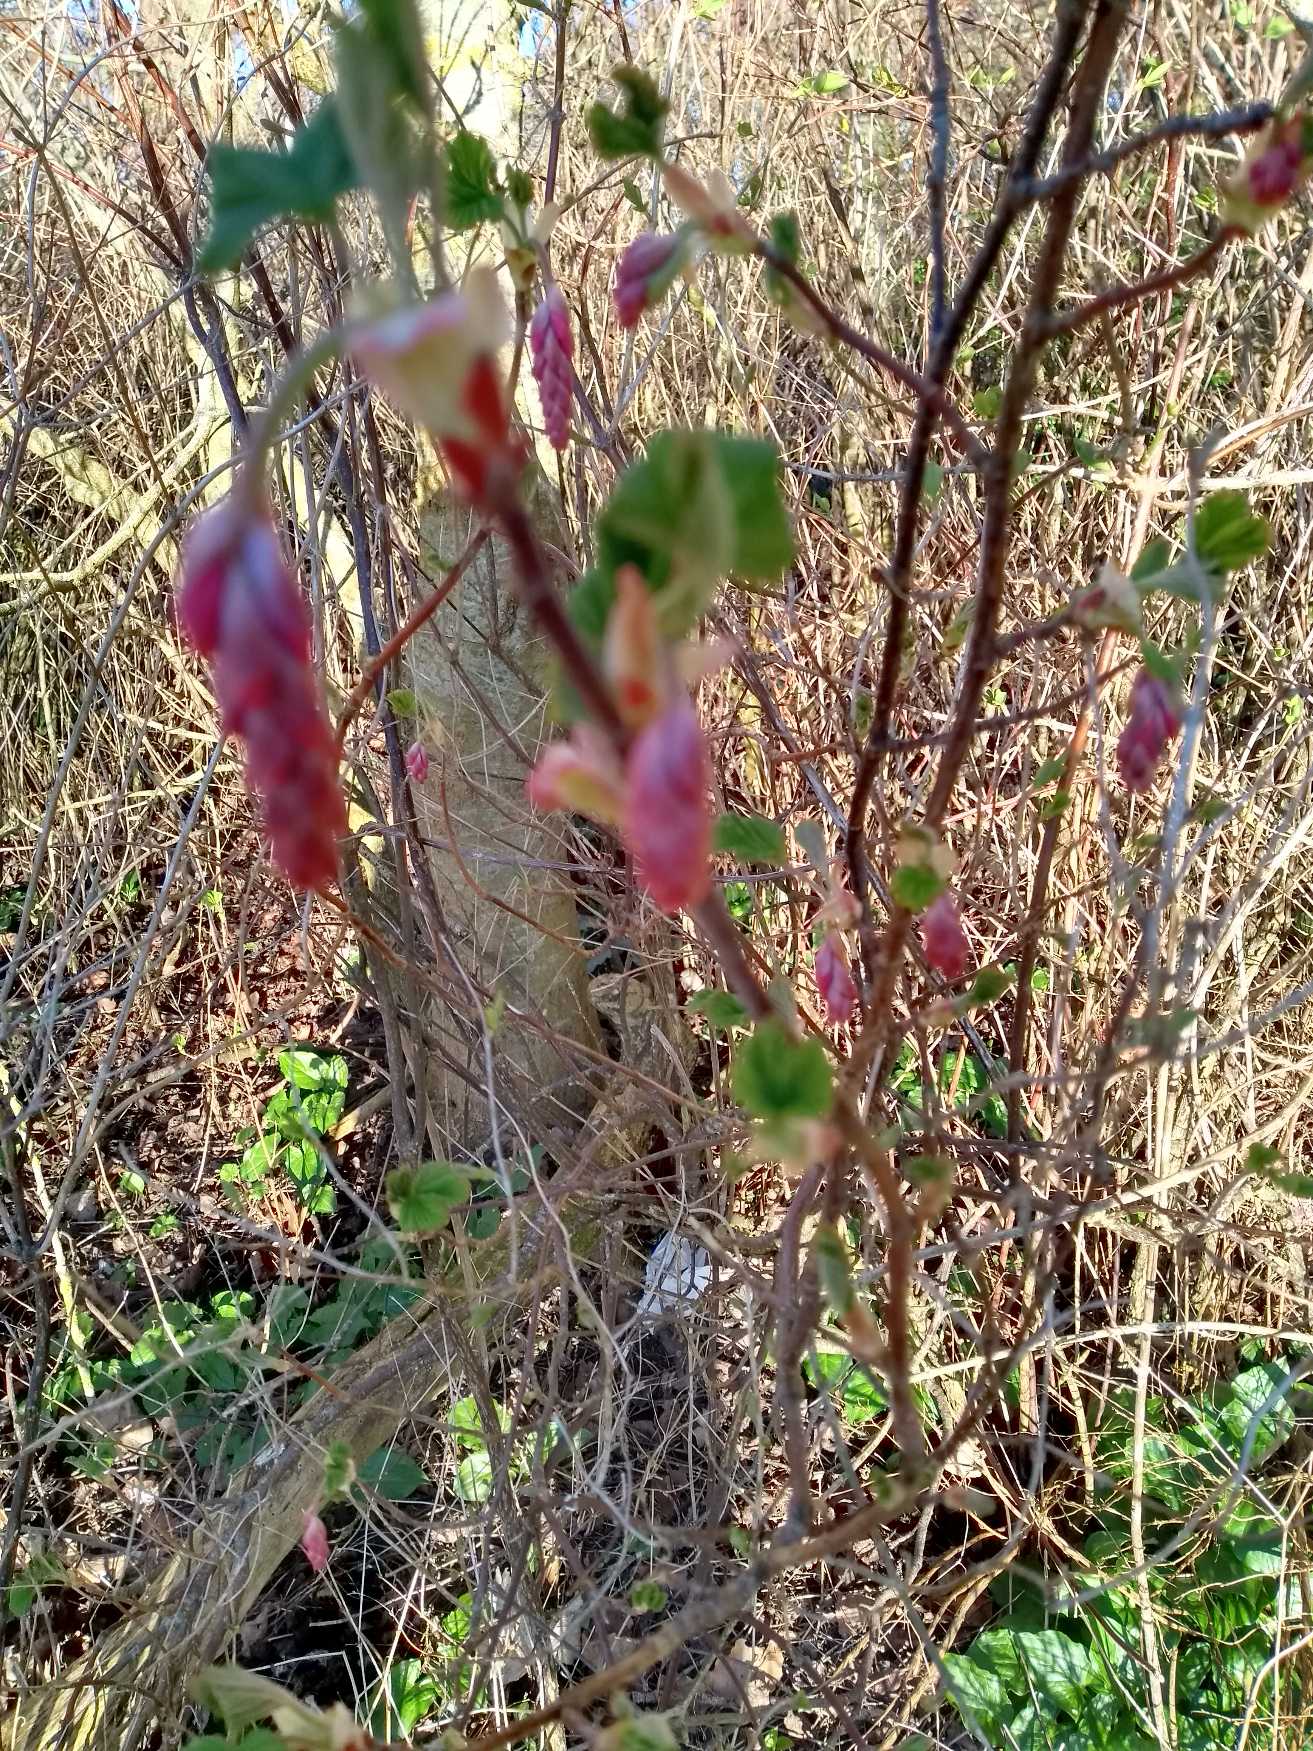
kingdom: Plantae
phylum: Tracheophyta
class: Magnoliopsida
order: Saxifragales
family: Grossulariaceae
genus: Ribes
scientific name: Ribes sanguineum
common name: Blod-ribs
